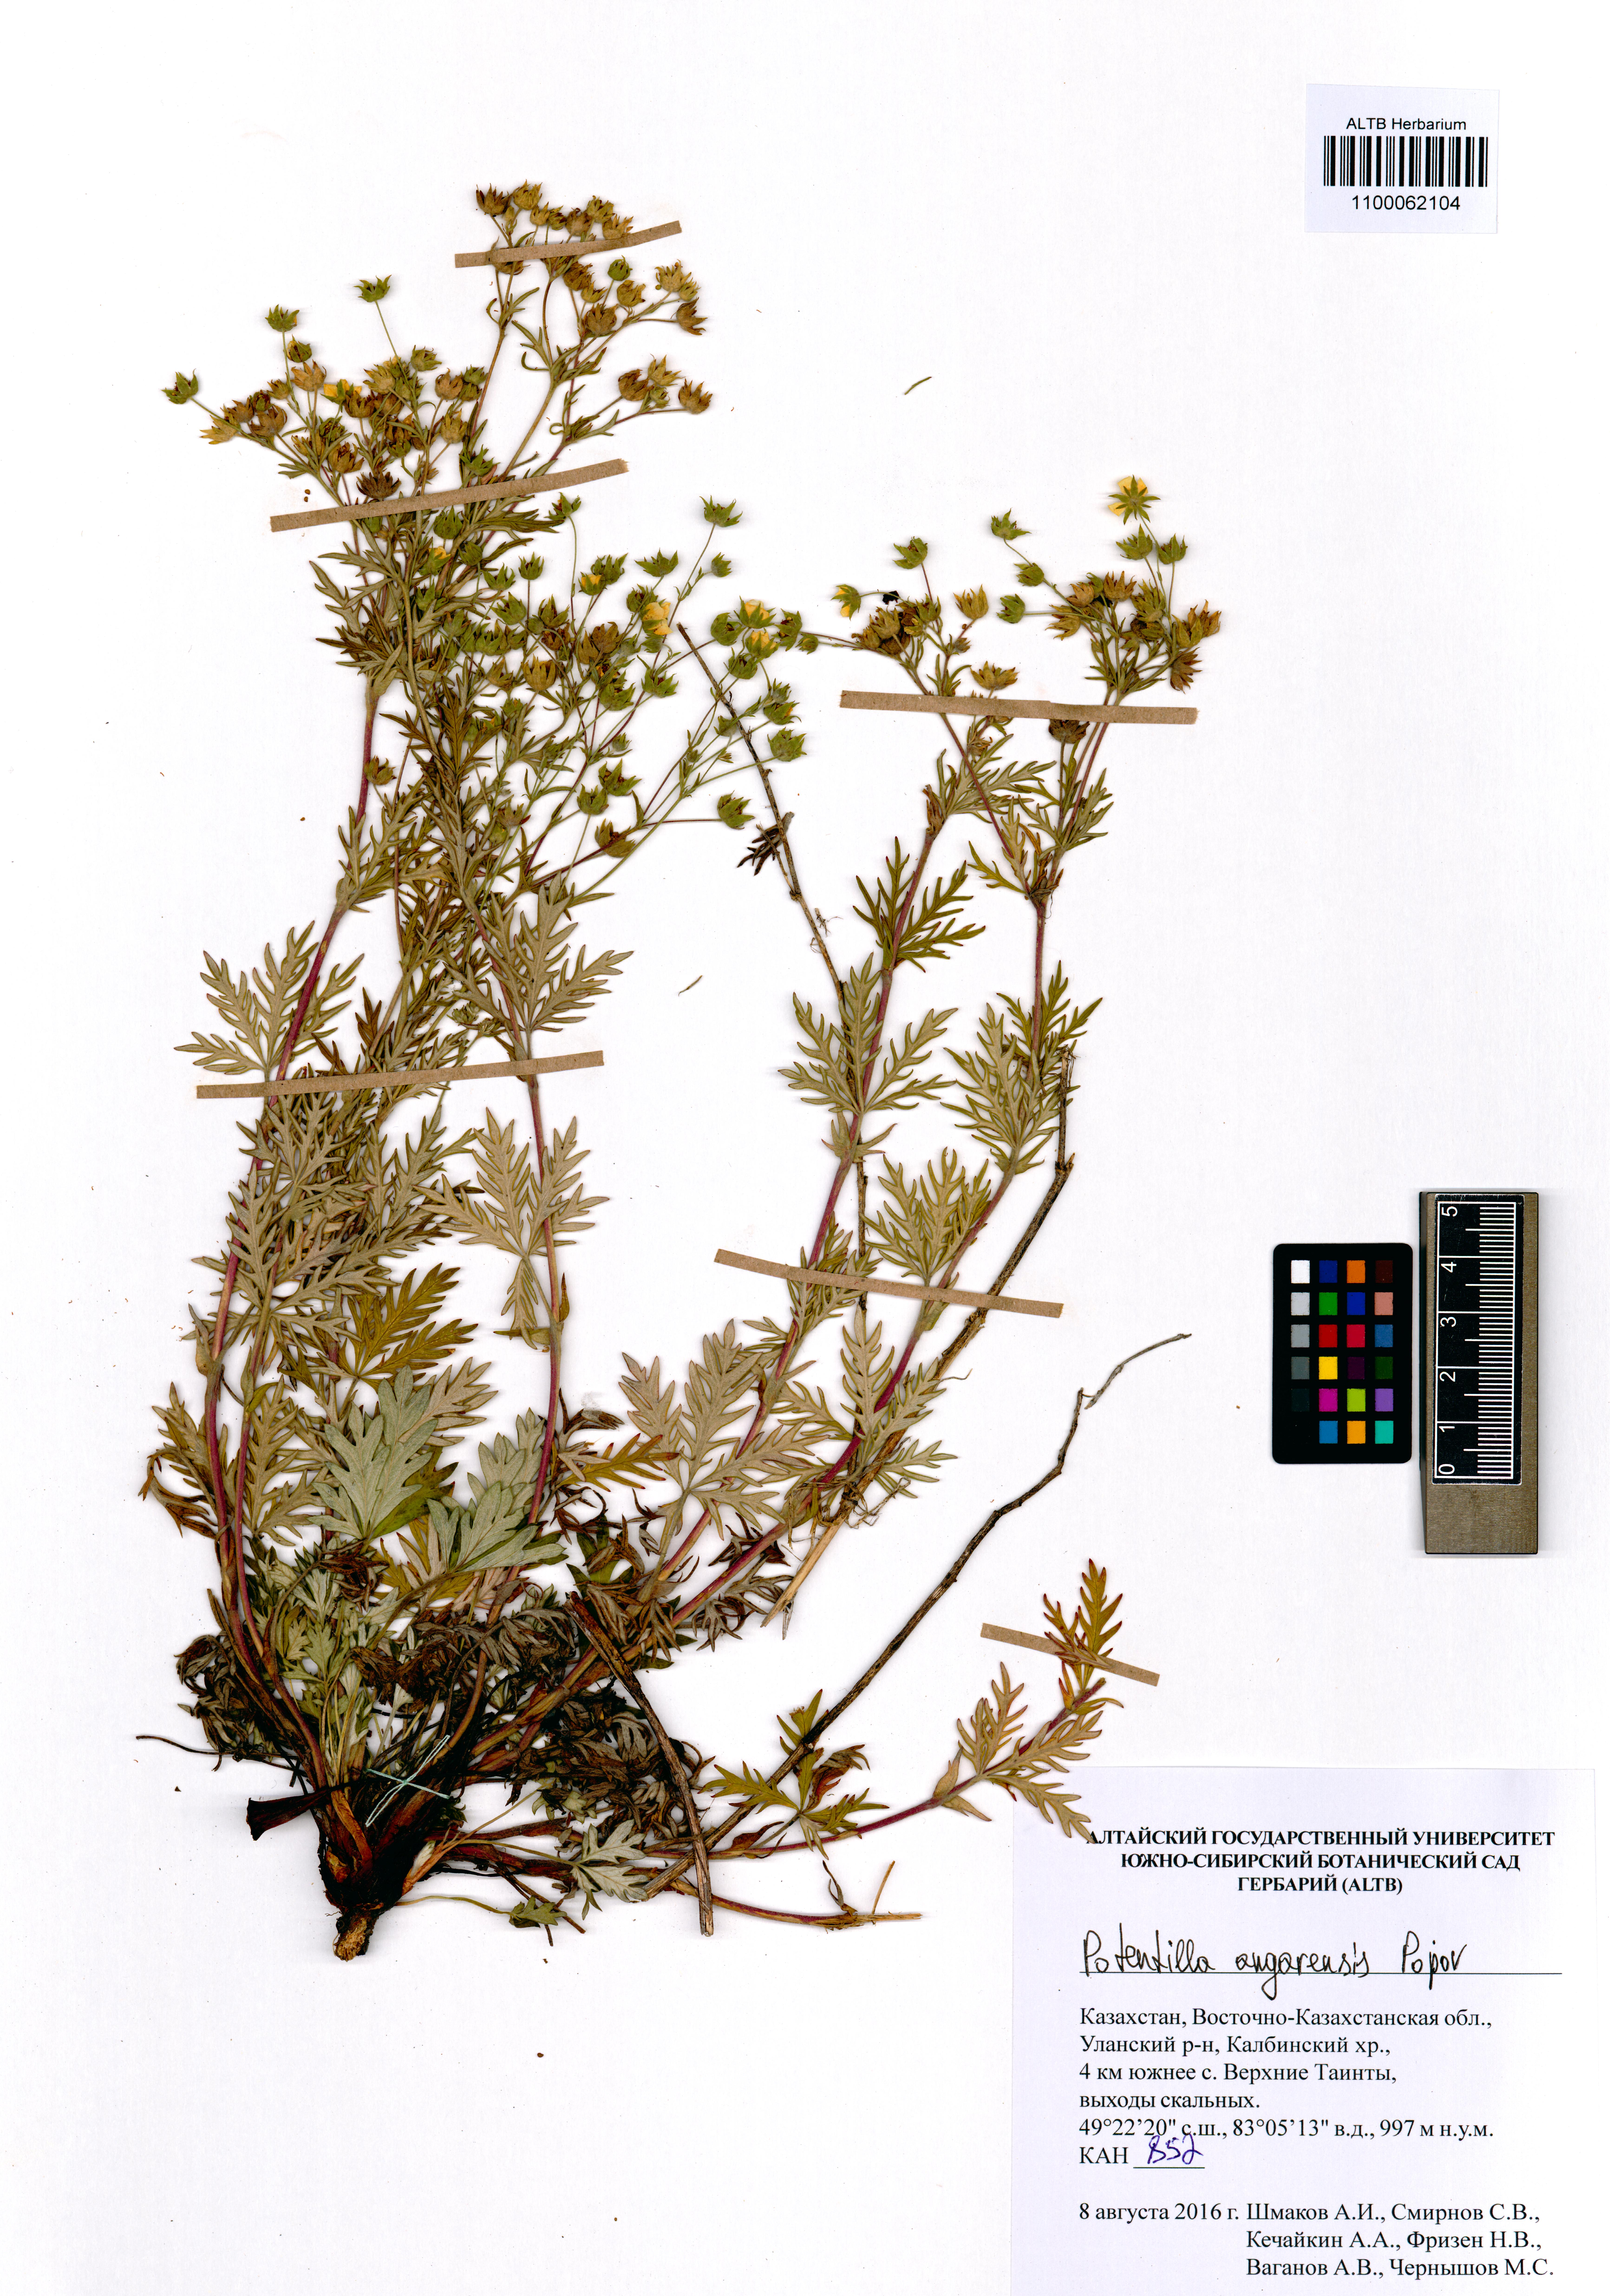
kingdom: Plantae
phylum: Tracheophyta
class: Magnoliopsida
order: Rosales
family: Rosaceae
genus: Potentilla
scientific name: Potentilla angarensis
